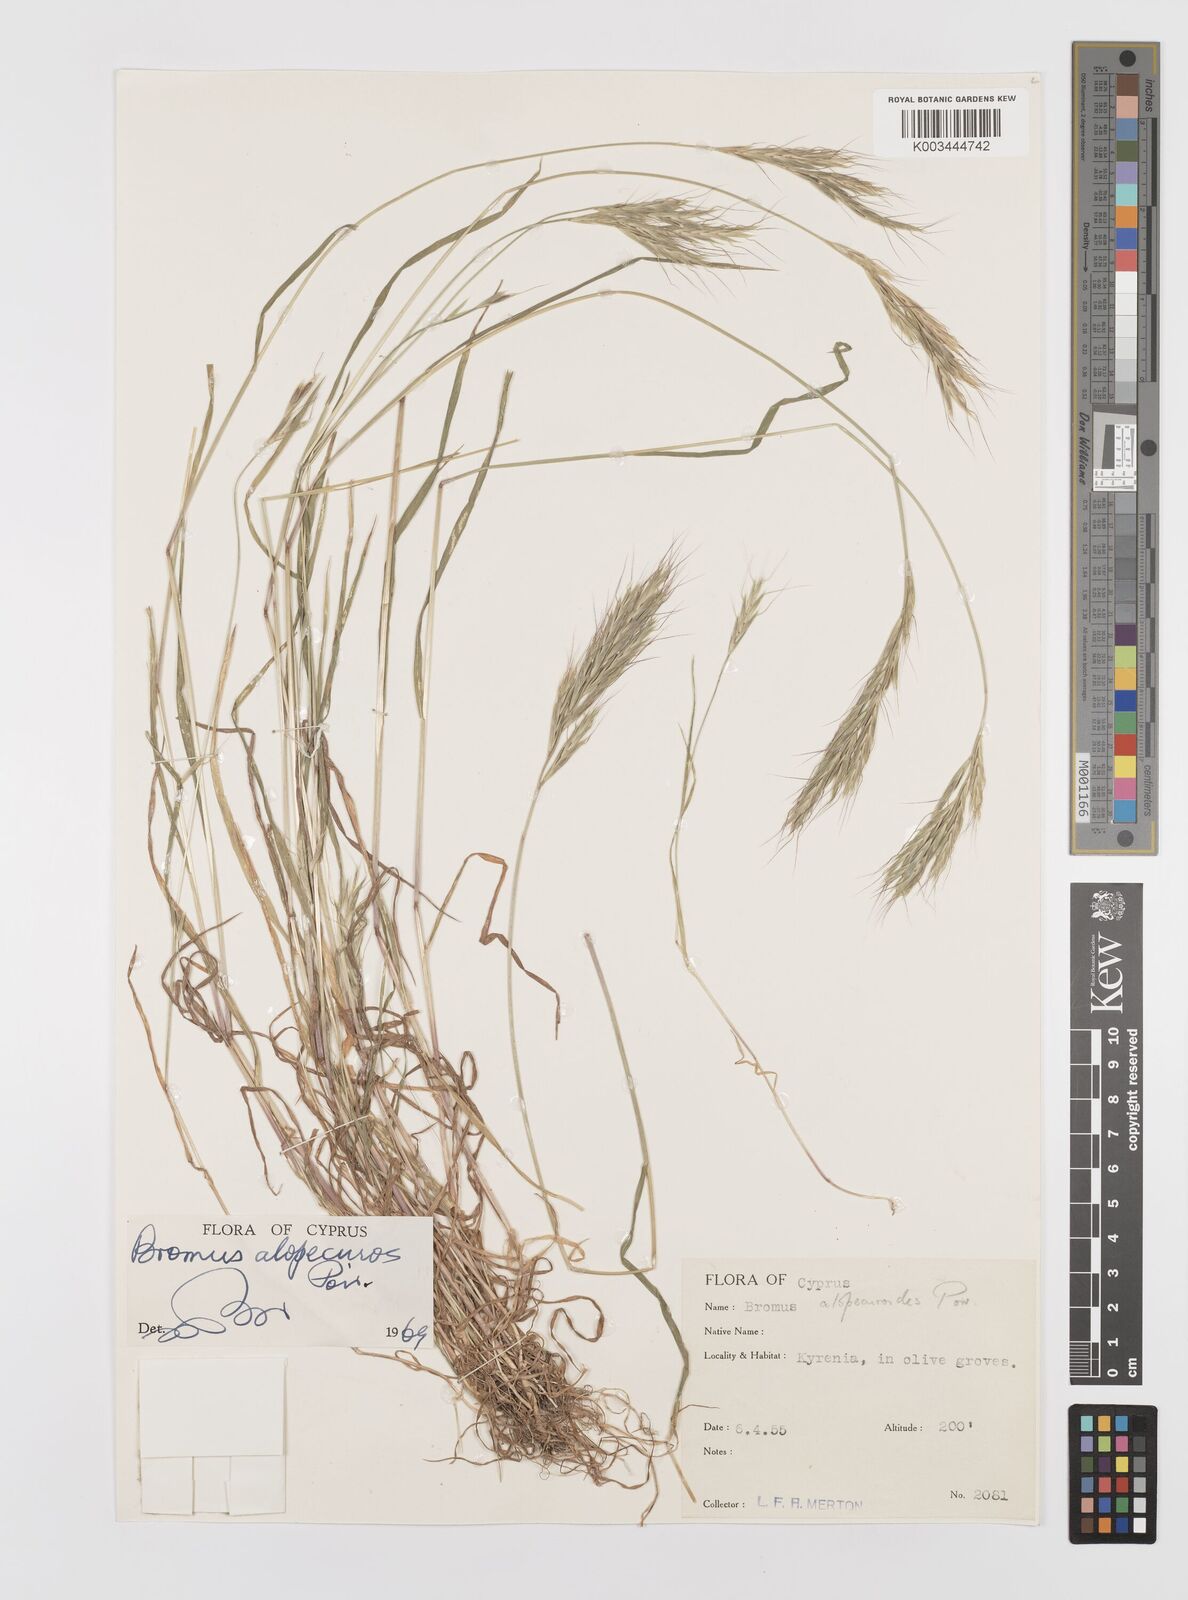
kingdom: Plantae
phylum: Tracheophyta
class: Liliopsida
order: Poales
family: Poaceae
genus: Bromus
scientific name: Bromus alopecuros
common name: Weedy brome
